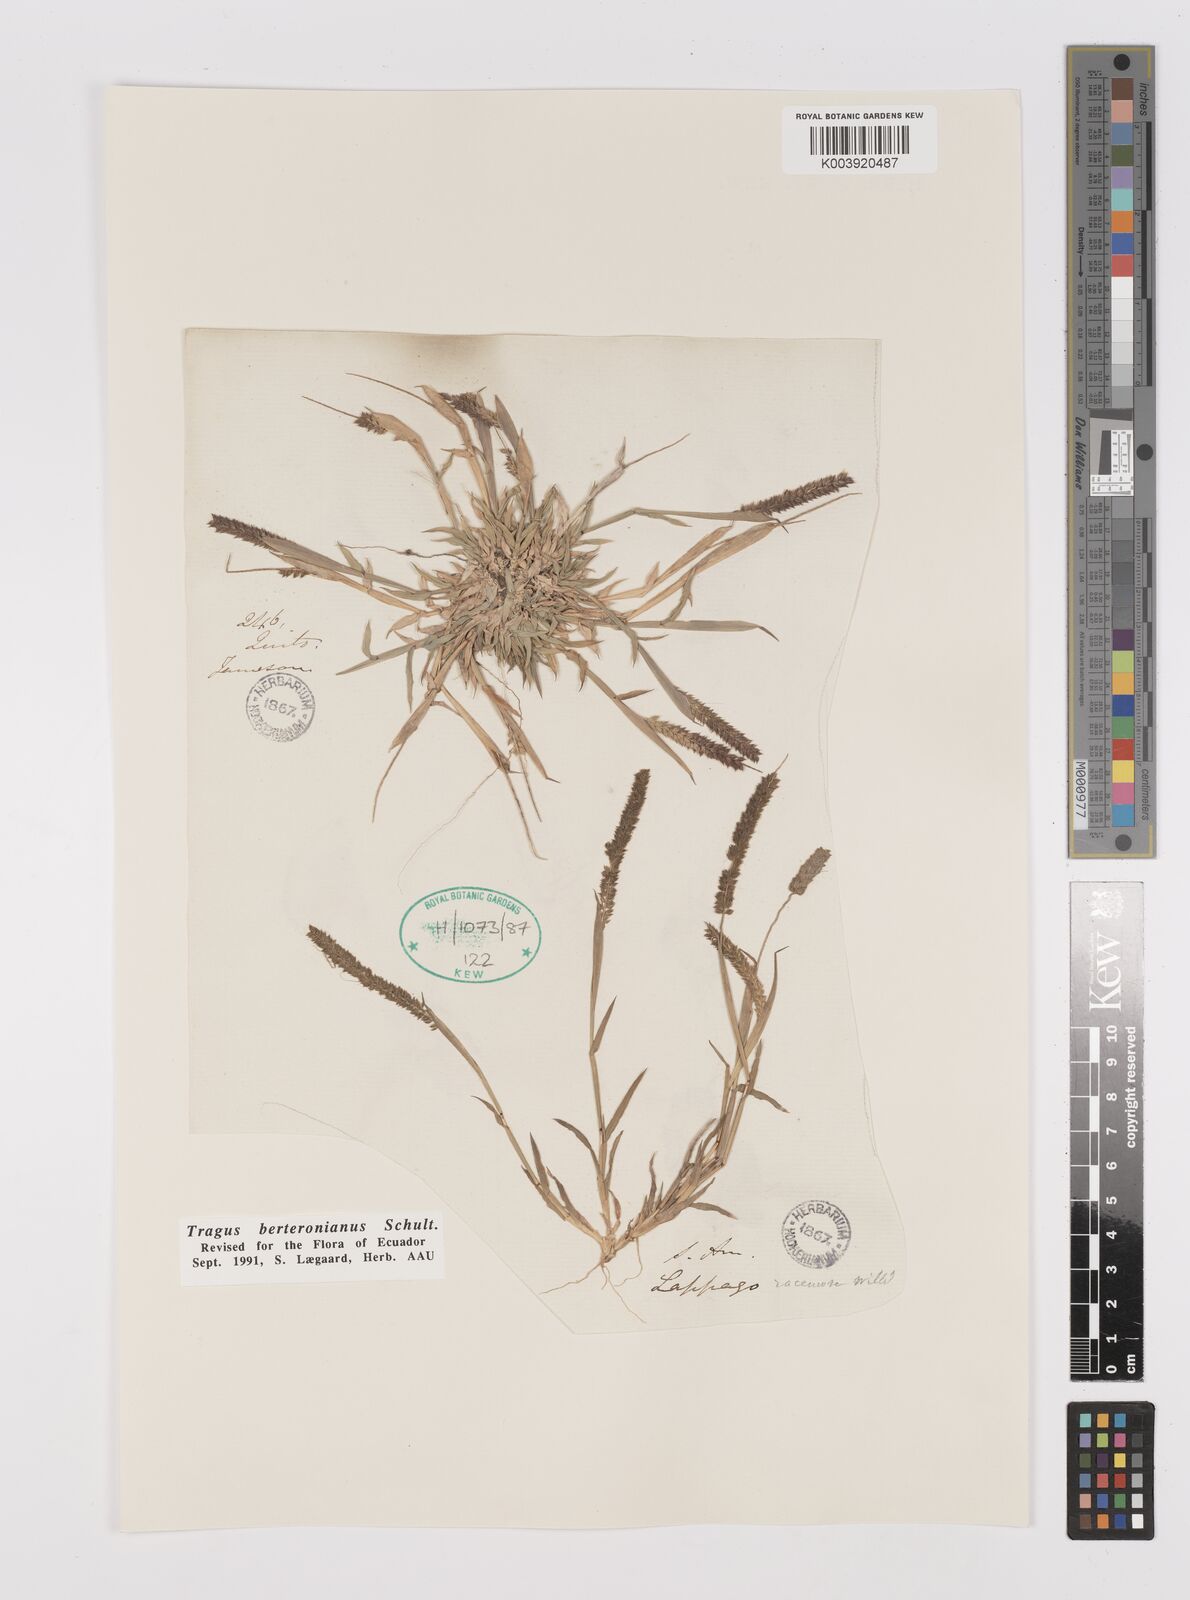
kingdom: Plantae
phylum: Tracheophyta
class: Liliopsida
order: Poales
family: Poaceae
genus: Tragus
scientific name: Tragus berteronianus
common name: African bur-grass
